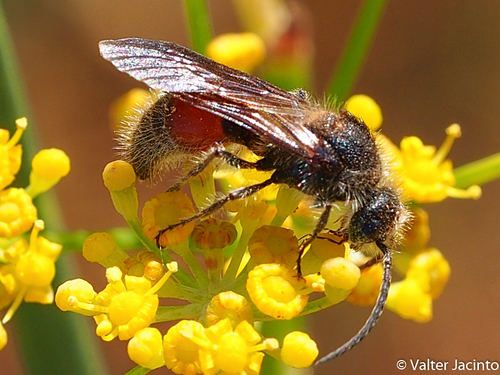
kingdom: Animalia
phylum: Arthropoda
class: Insecta
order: Hymenoptera
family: Mutillidae
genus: Tropidotilla
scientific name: Tropidotilla litoralis
